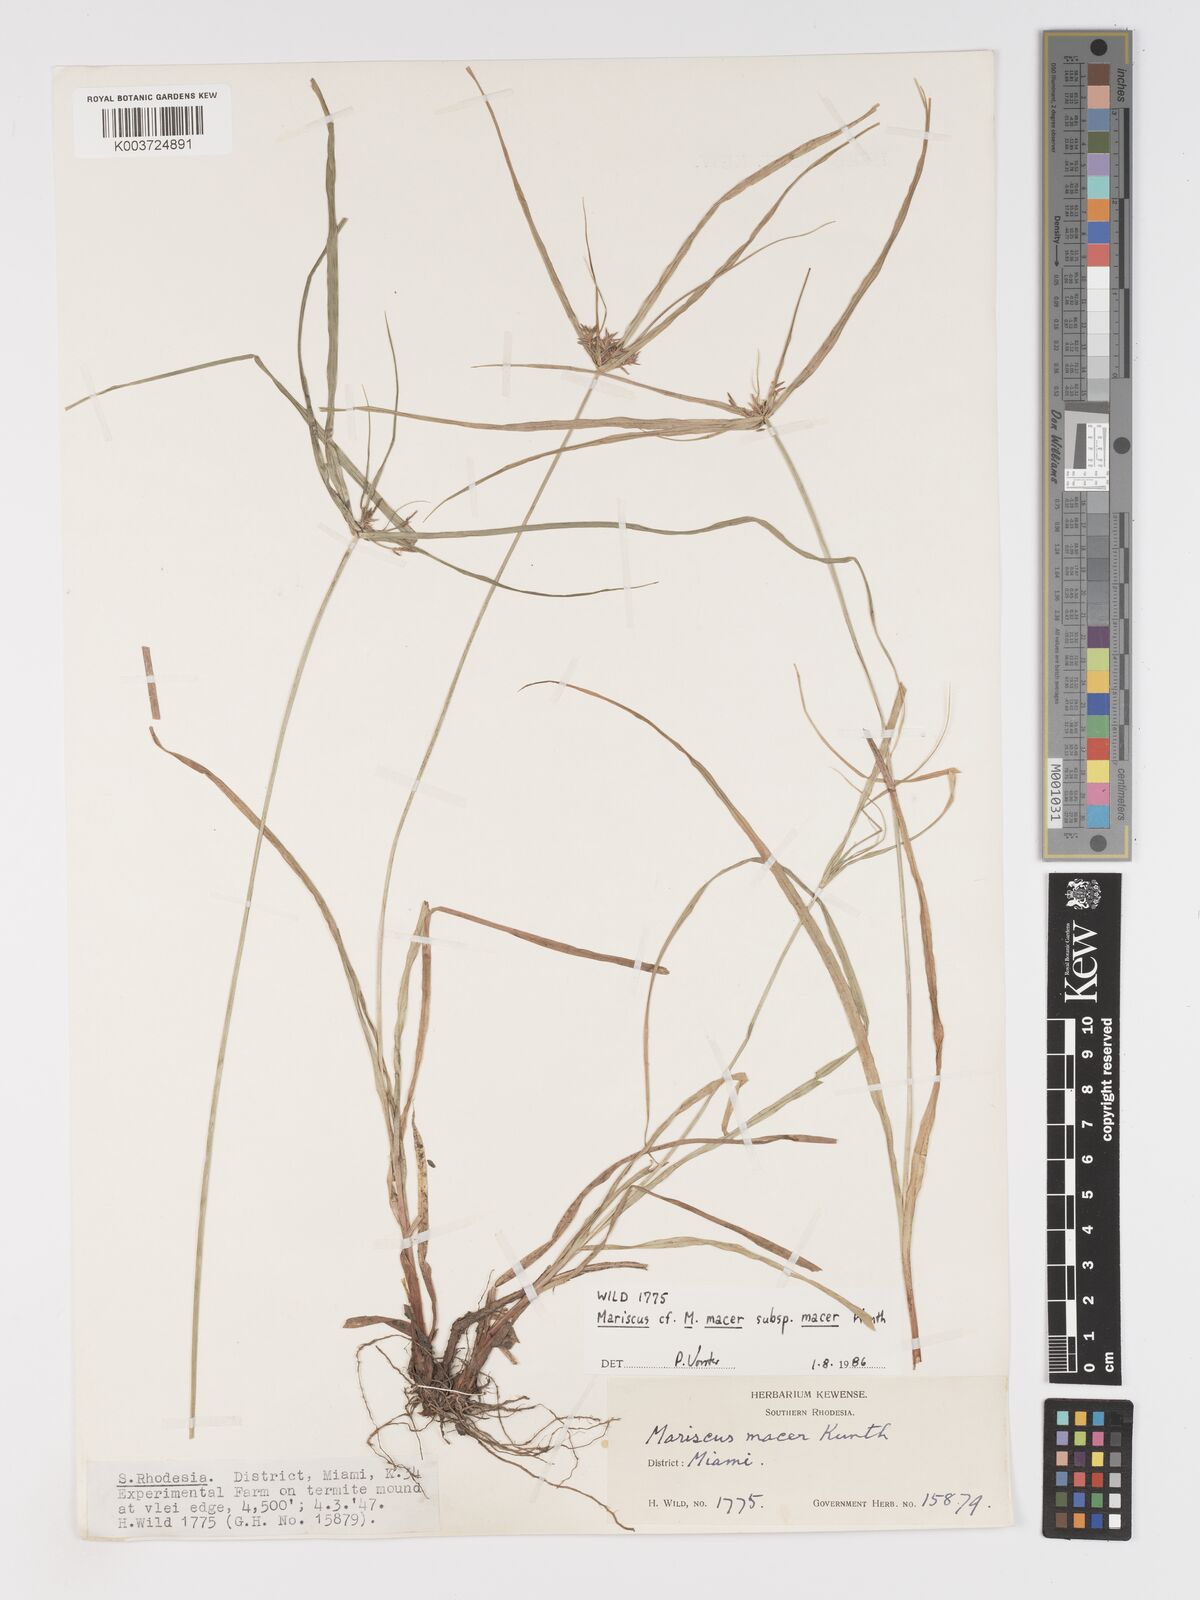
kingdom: Plantae
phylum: Tracheophyta
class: Liliopsida
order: Poales
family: Cyperaceae
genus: Cyperus
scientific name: Cyperus pseudoflavus
